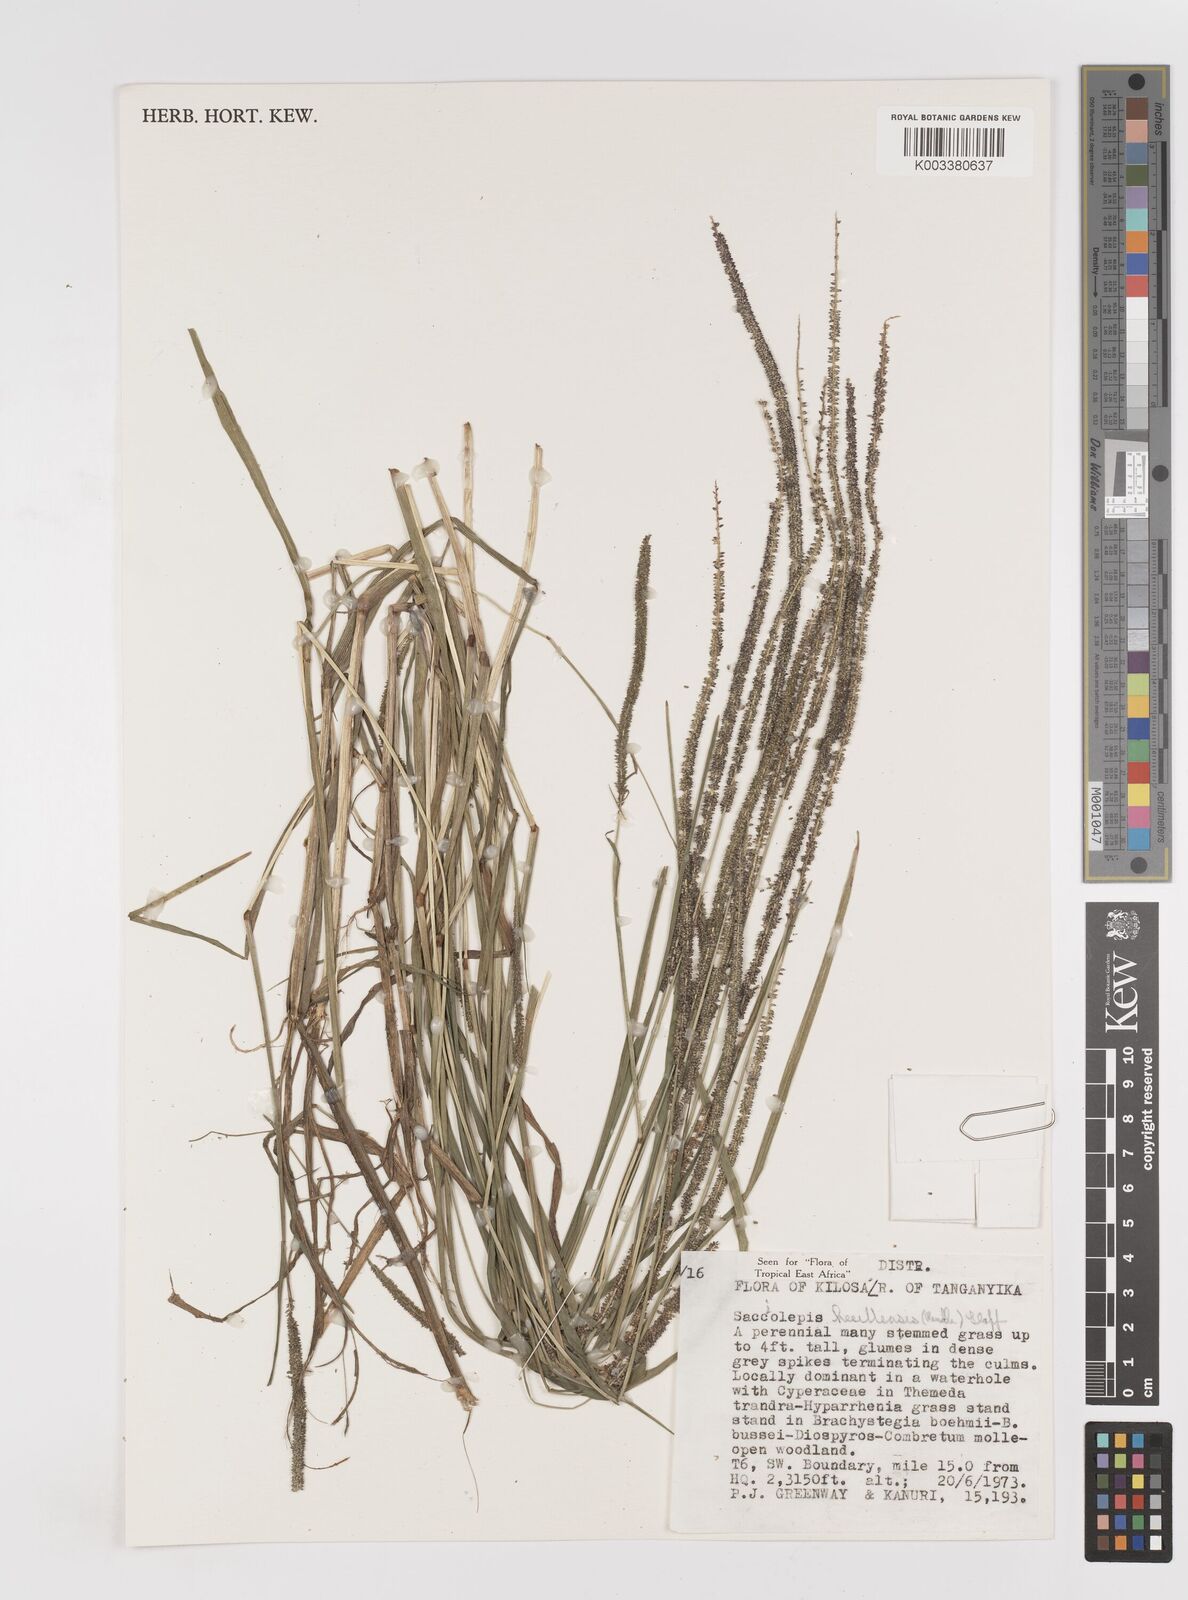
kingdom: Plantae
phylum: Tracheophyta
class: Liliopsida
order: Poales
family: Poaceae
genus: Sacciolepis
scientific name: Sacciolepis myosuroides
